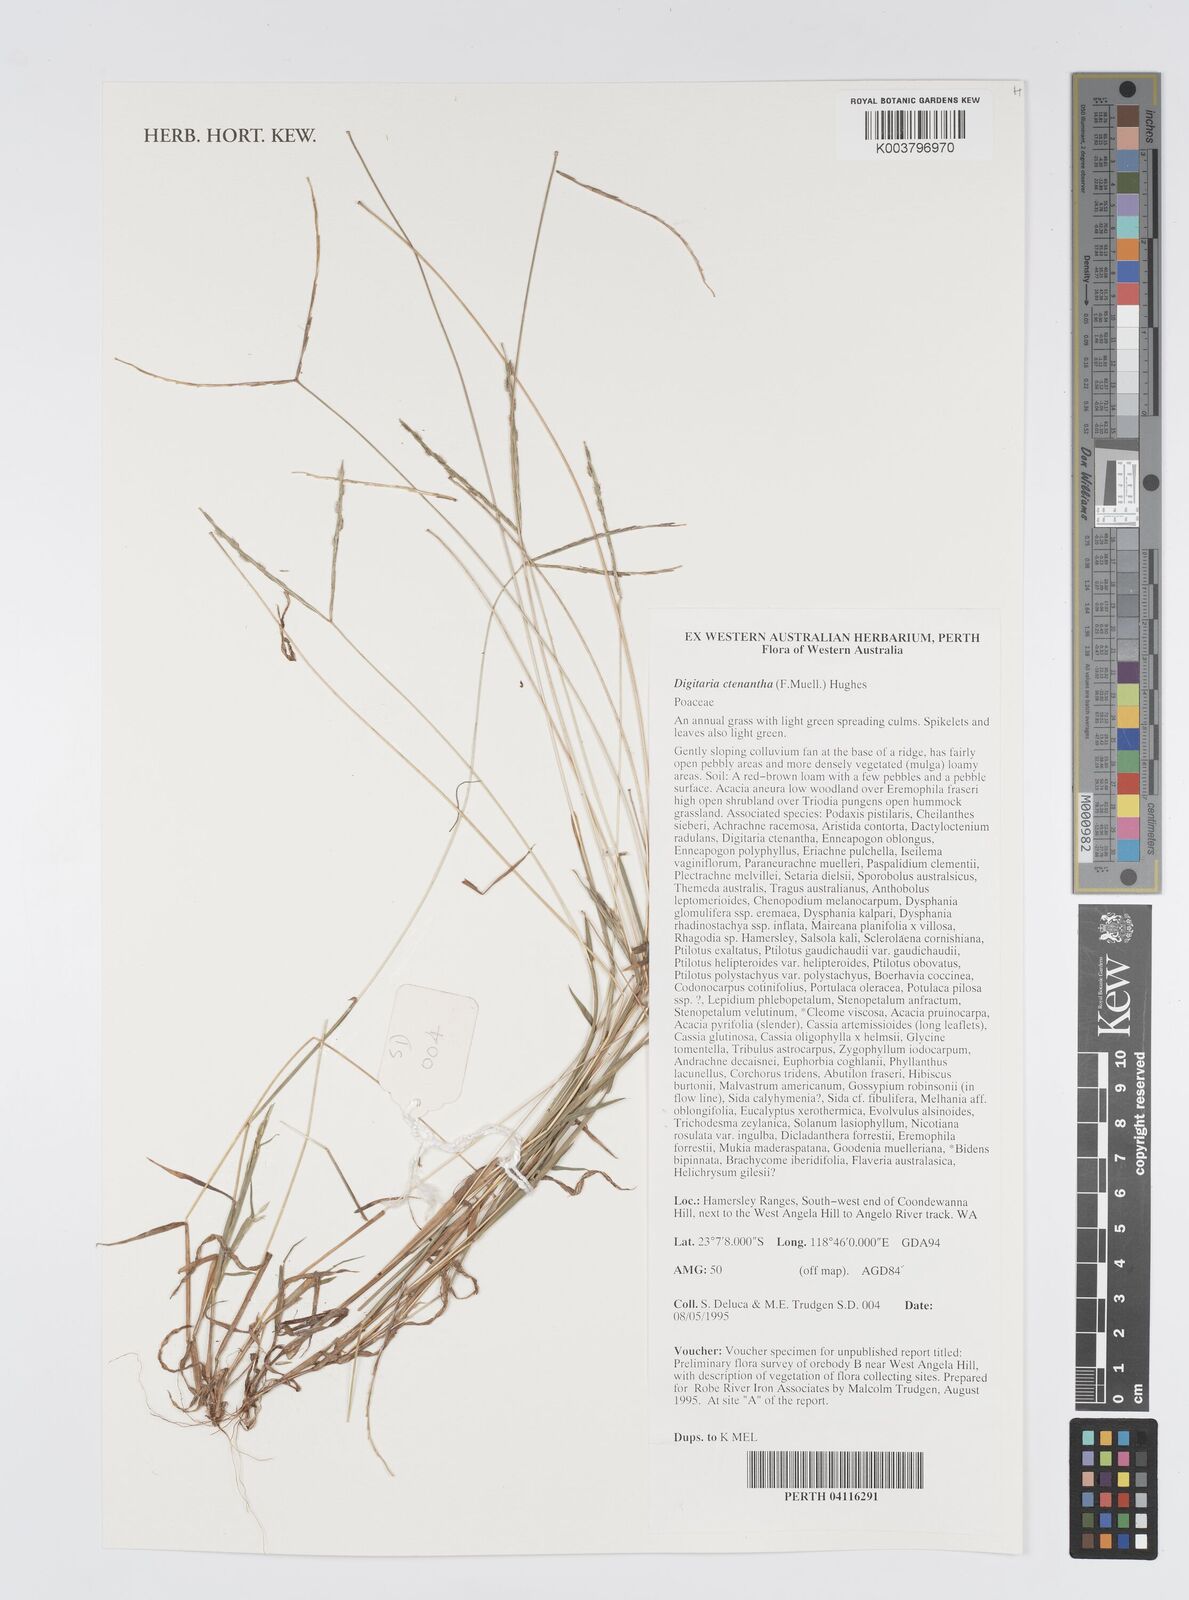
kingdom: Plantae
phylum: Tracheophyta
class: Liliopsida
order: Poales
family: Poaceae
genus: Digitaria
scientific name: Digitaria ctenantha
